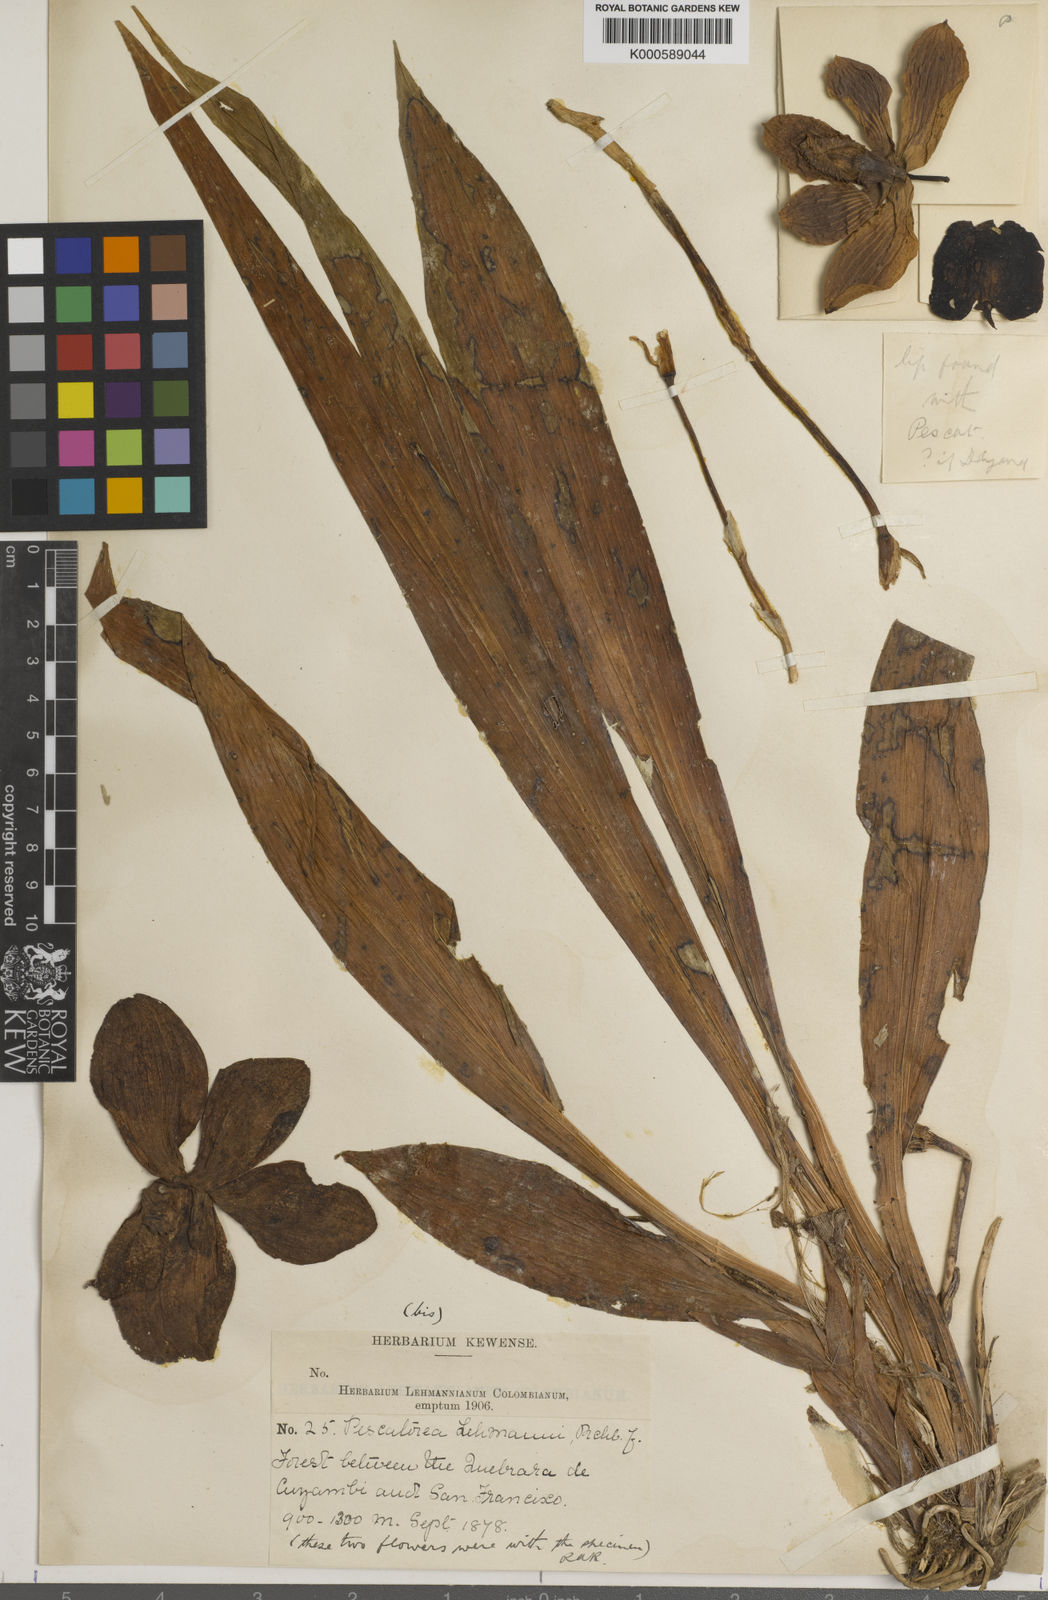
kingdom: Plantae
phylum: Tracheophyta
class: Liliopsida
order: Asparagales
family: Orchidaceae
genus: Pescatoria
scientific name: Pescatoria lehmannii
